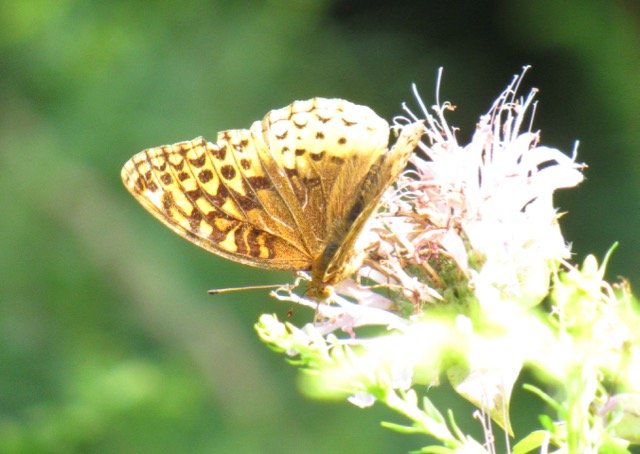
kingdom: Animalia
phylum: Arthropoda
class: Insecta
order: Lepidoptera
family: Nymphalidae
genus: Speyeria
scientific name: Speyeria cybele
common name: Great Spangled Fritillary
